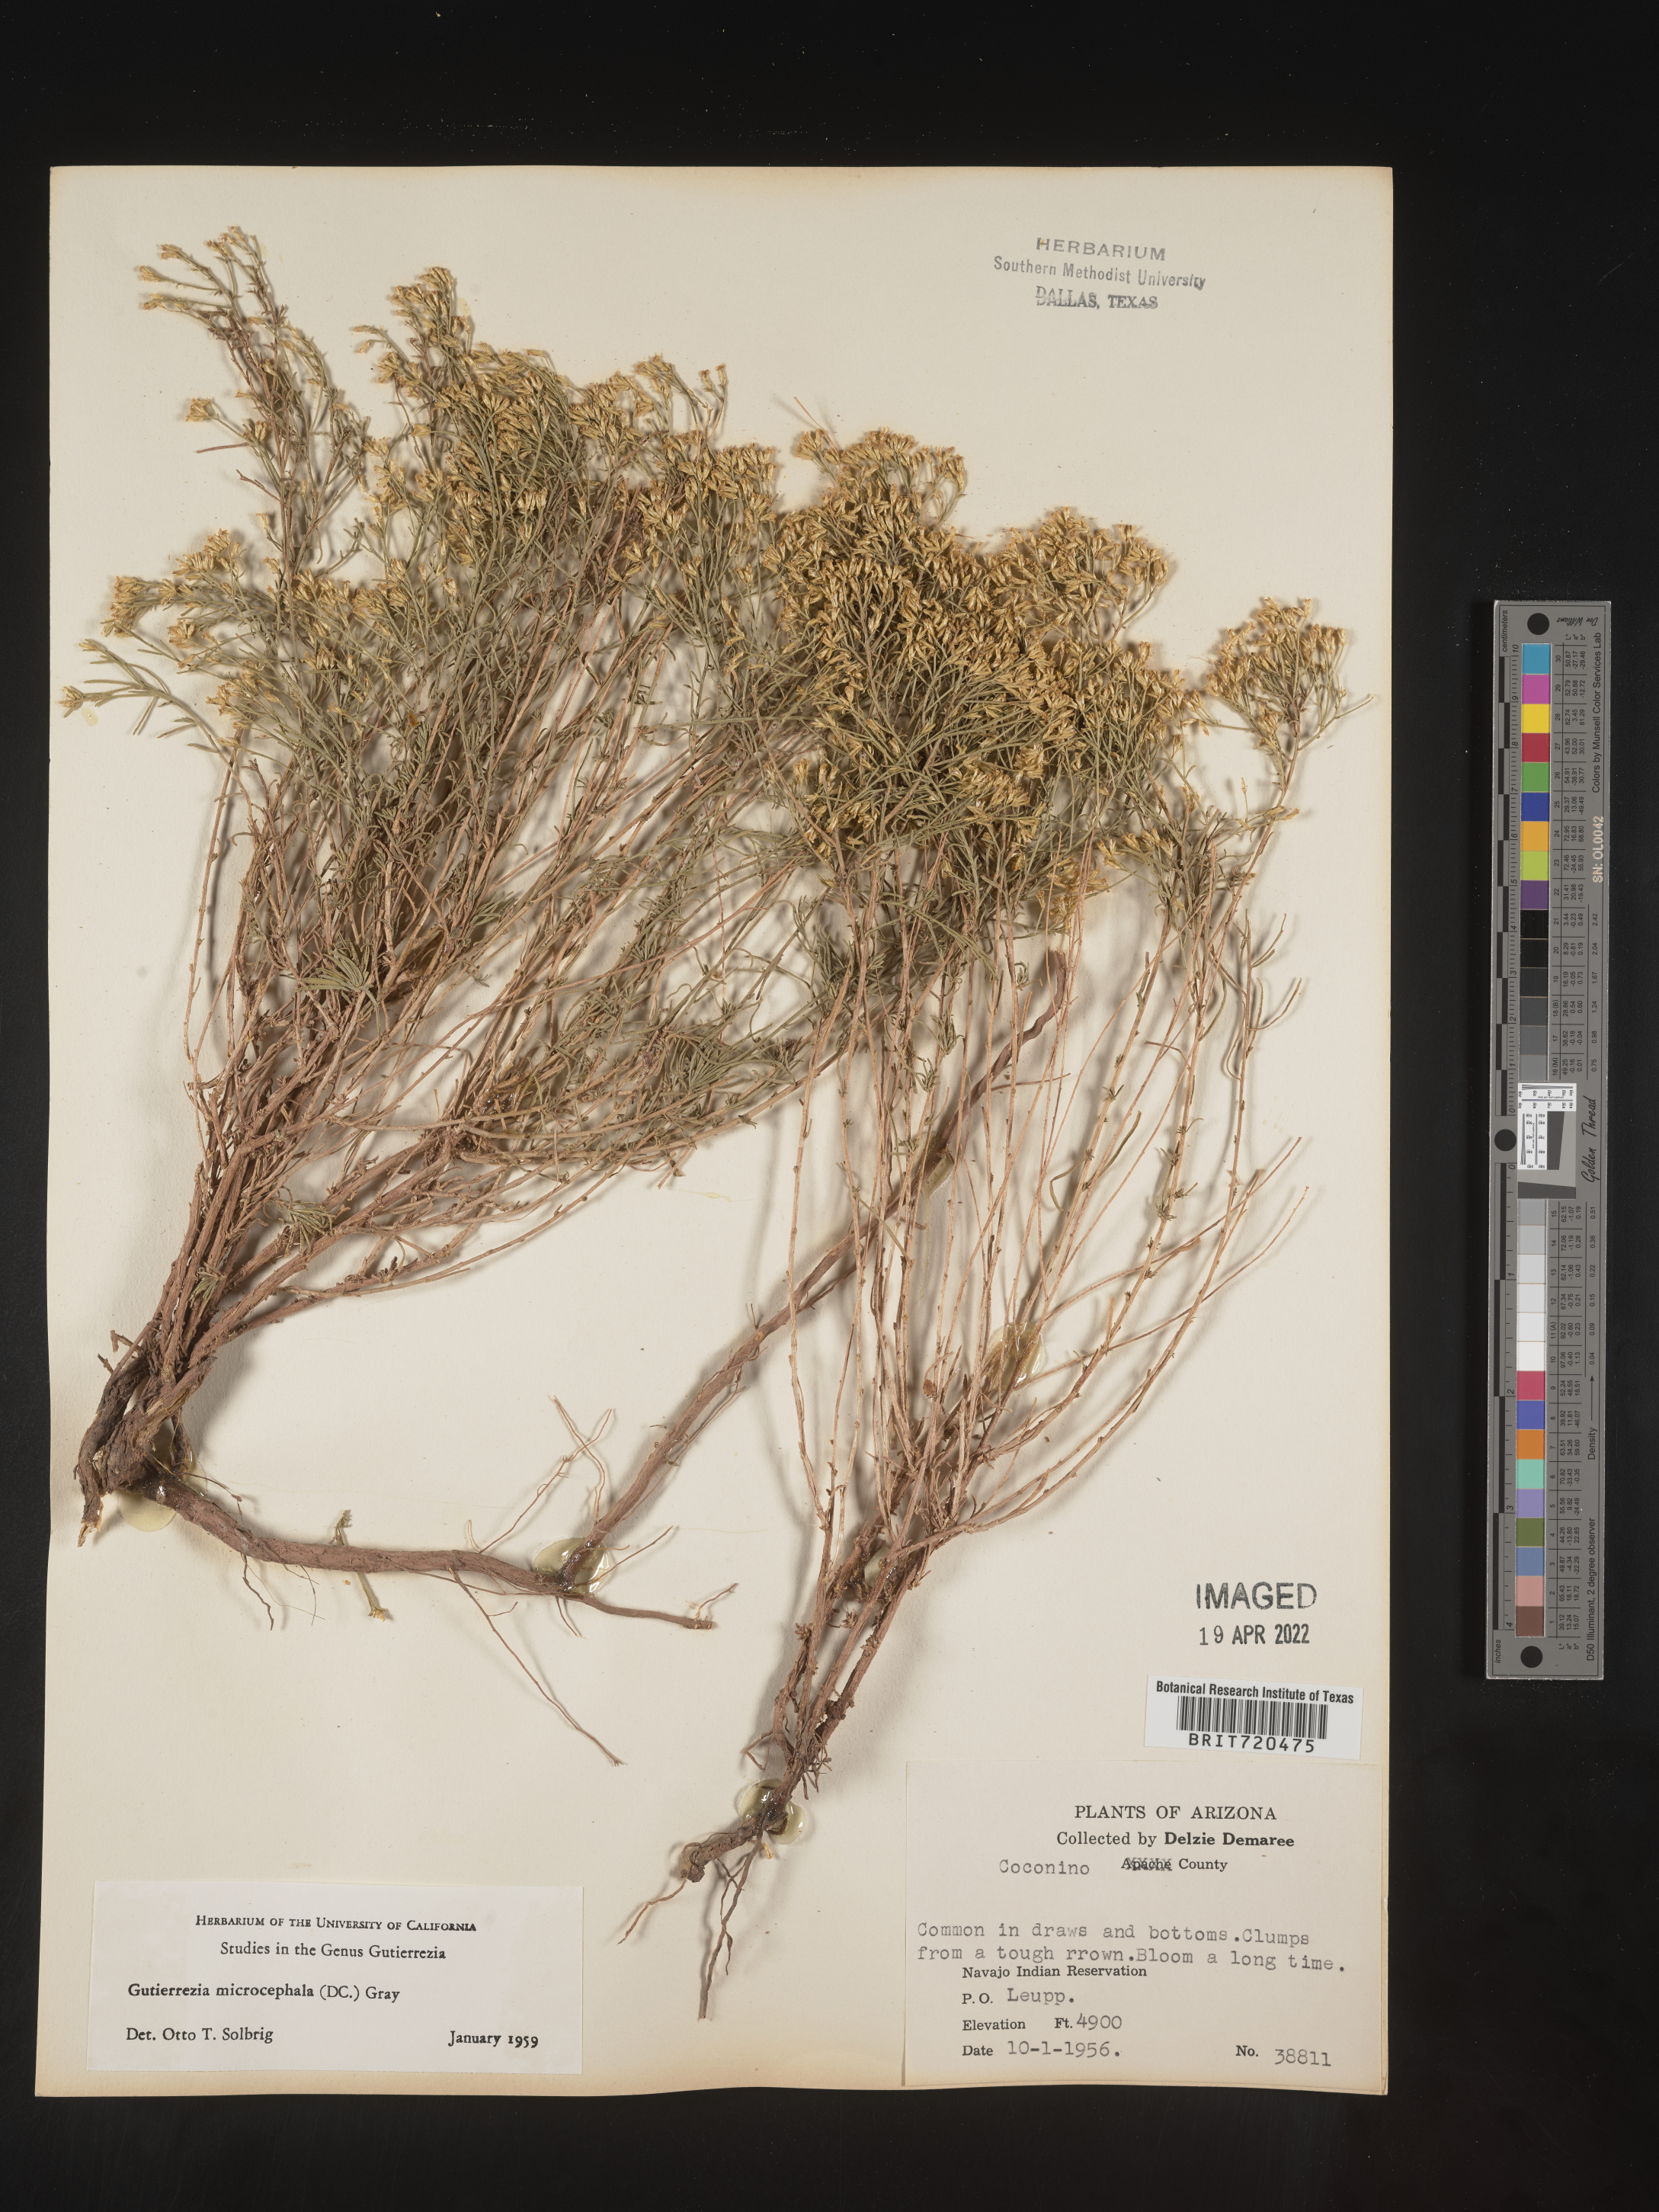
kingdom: Plantae
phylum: Tracheophyta
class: Magnoliopsida
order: Asterales
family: Asteraceae
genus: Gutierrezia
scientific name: Gutierrezia microcephala
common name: Thread snakeweed
